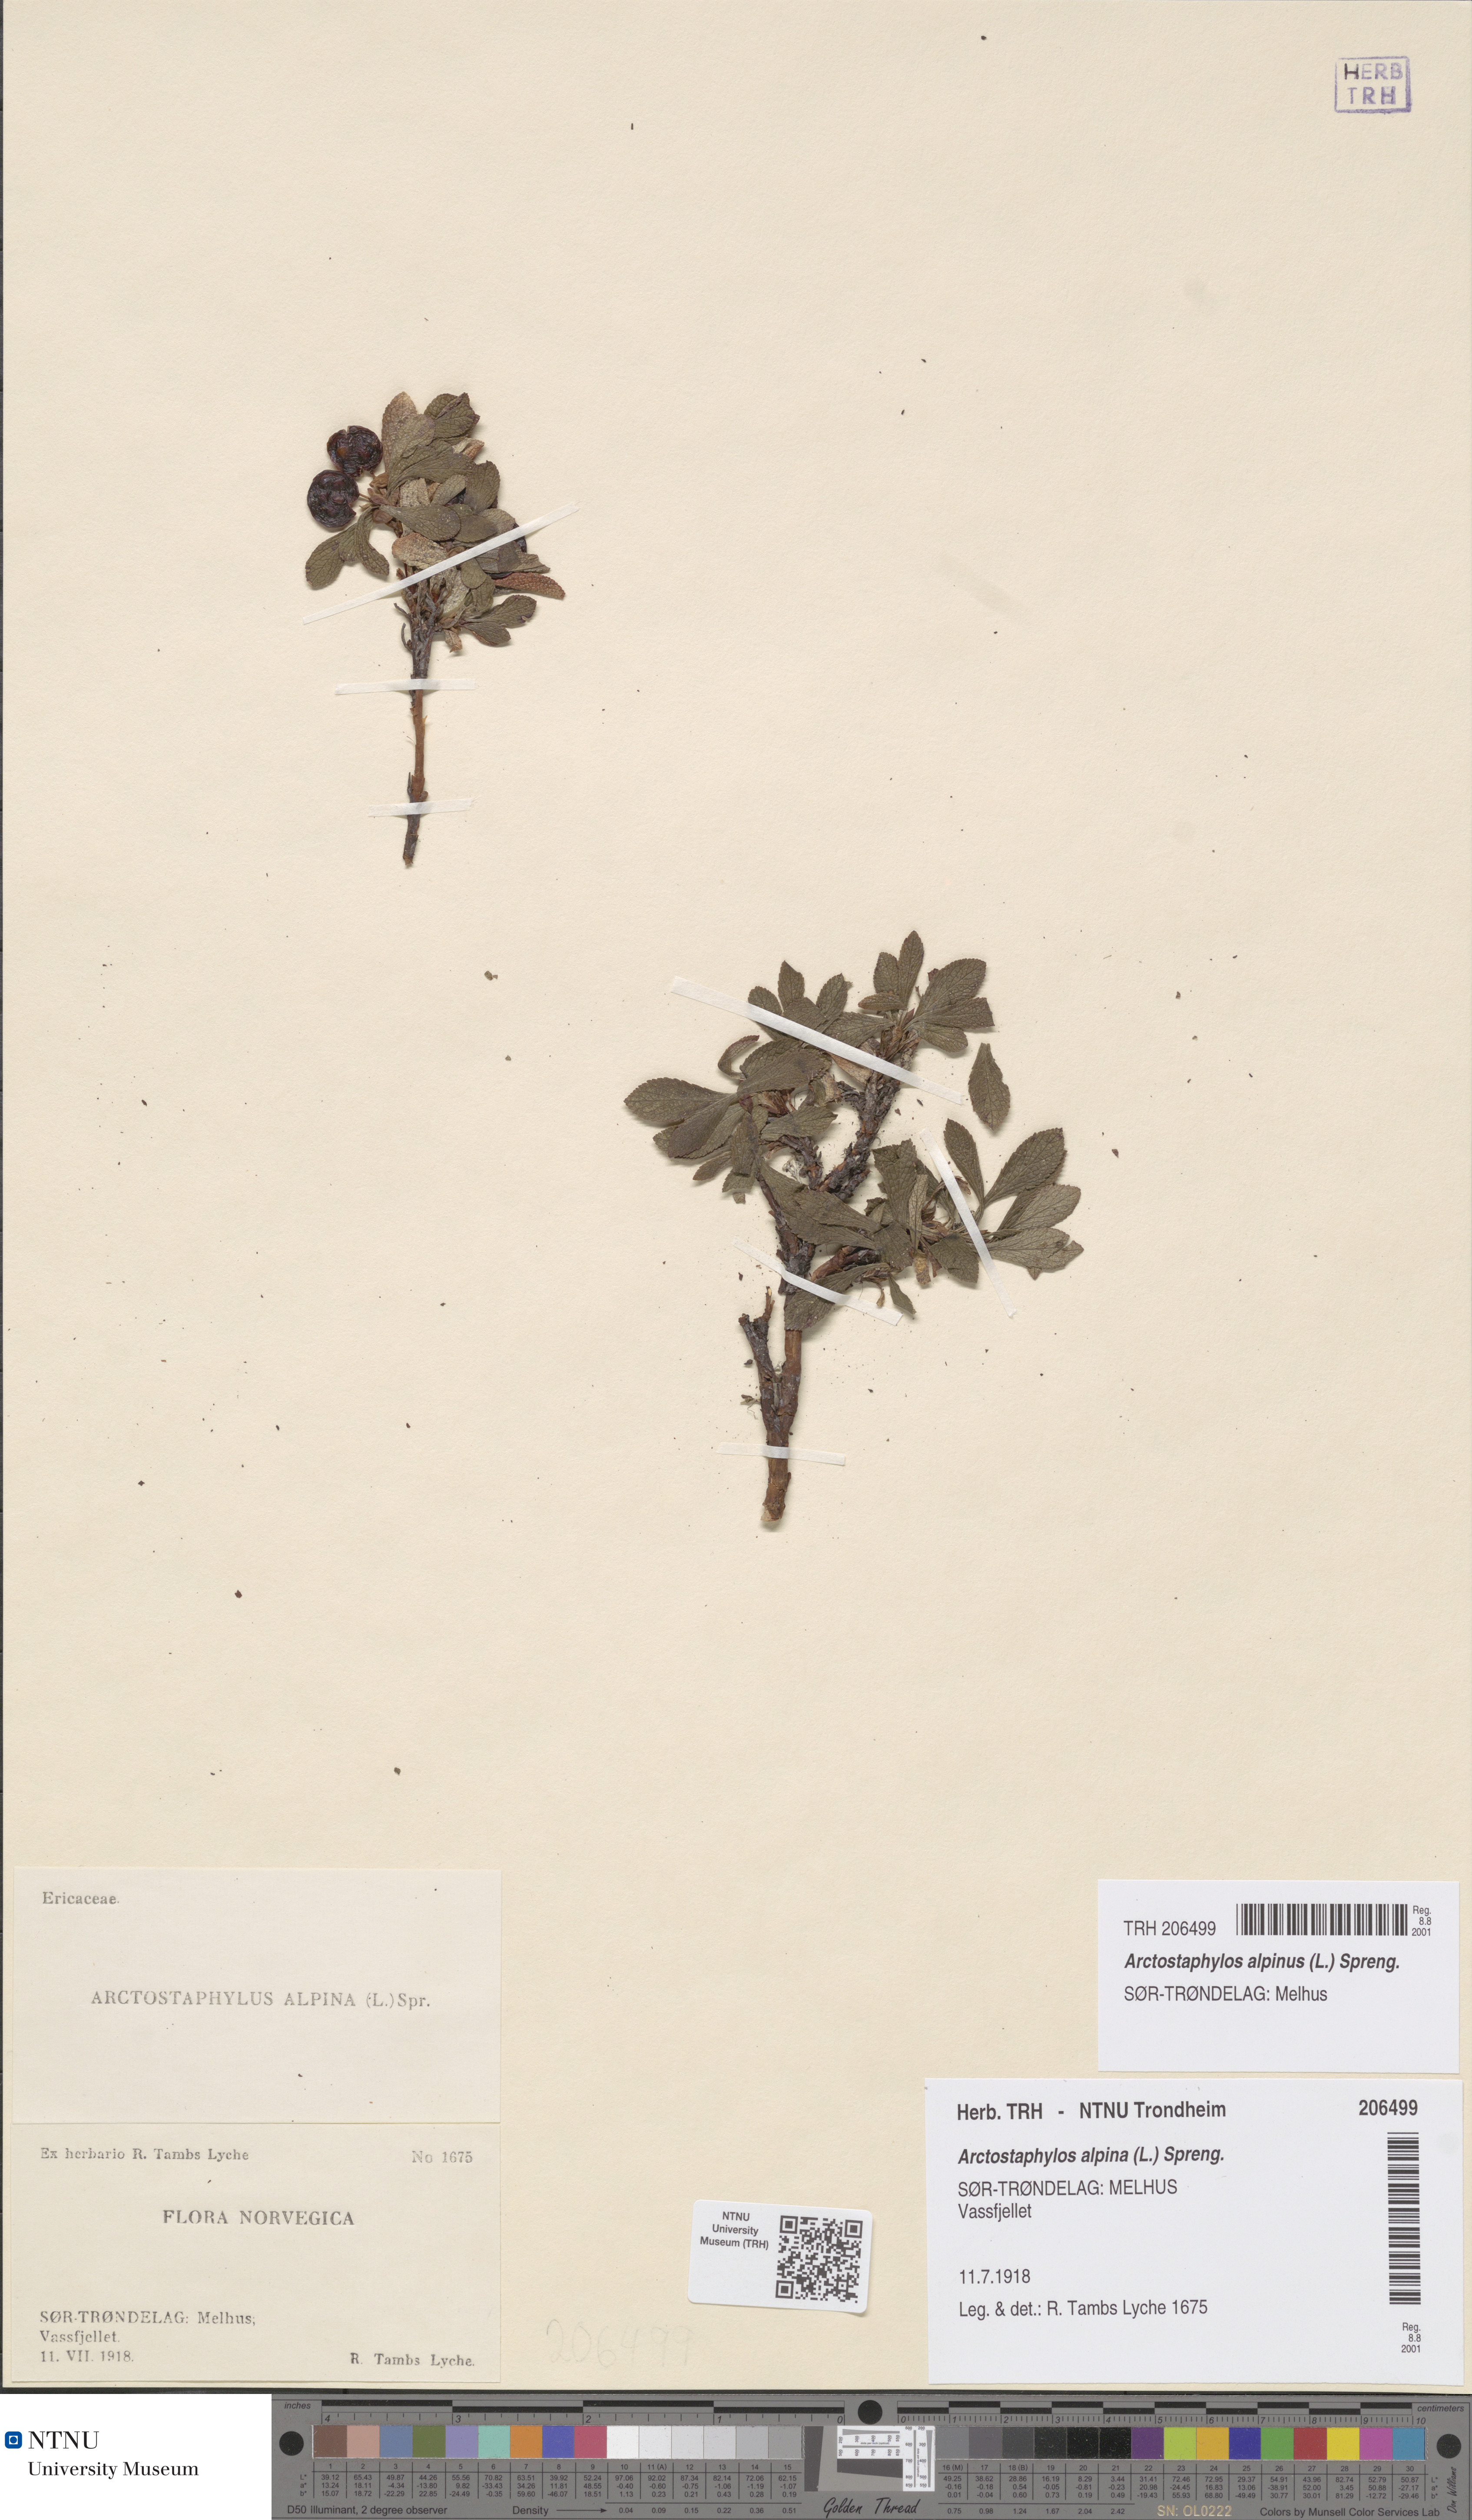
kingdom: Plantae
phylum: Tracheophyta
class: Magnoliopsida
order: Ericales
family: Ericaceae
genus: Arctostaphylos
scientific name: Arctostaphylos alpinus
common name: Alpine bearberry
